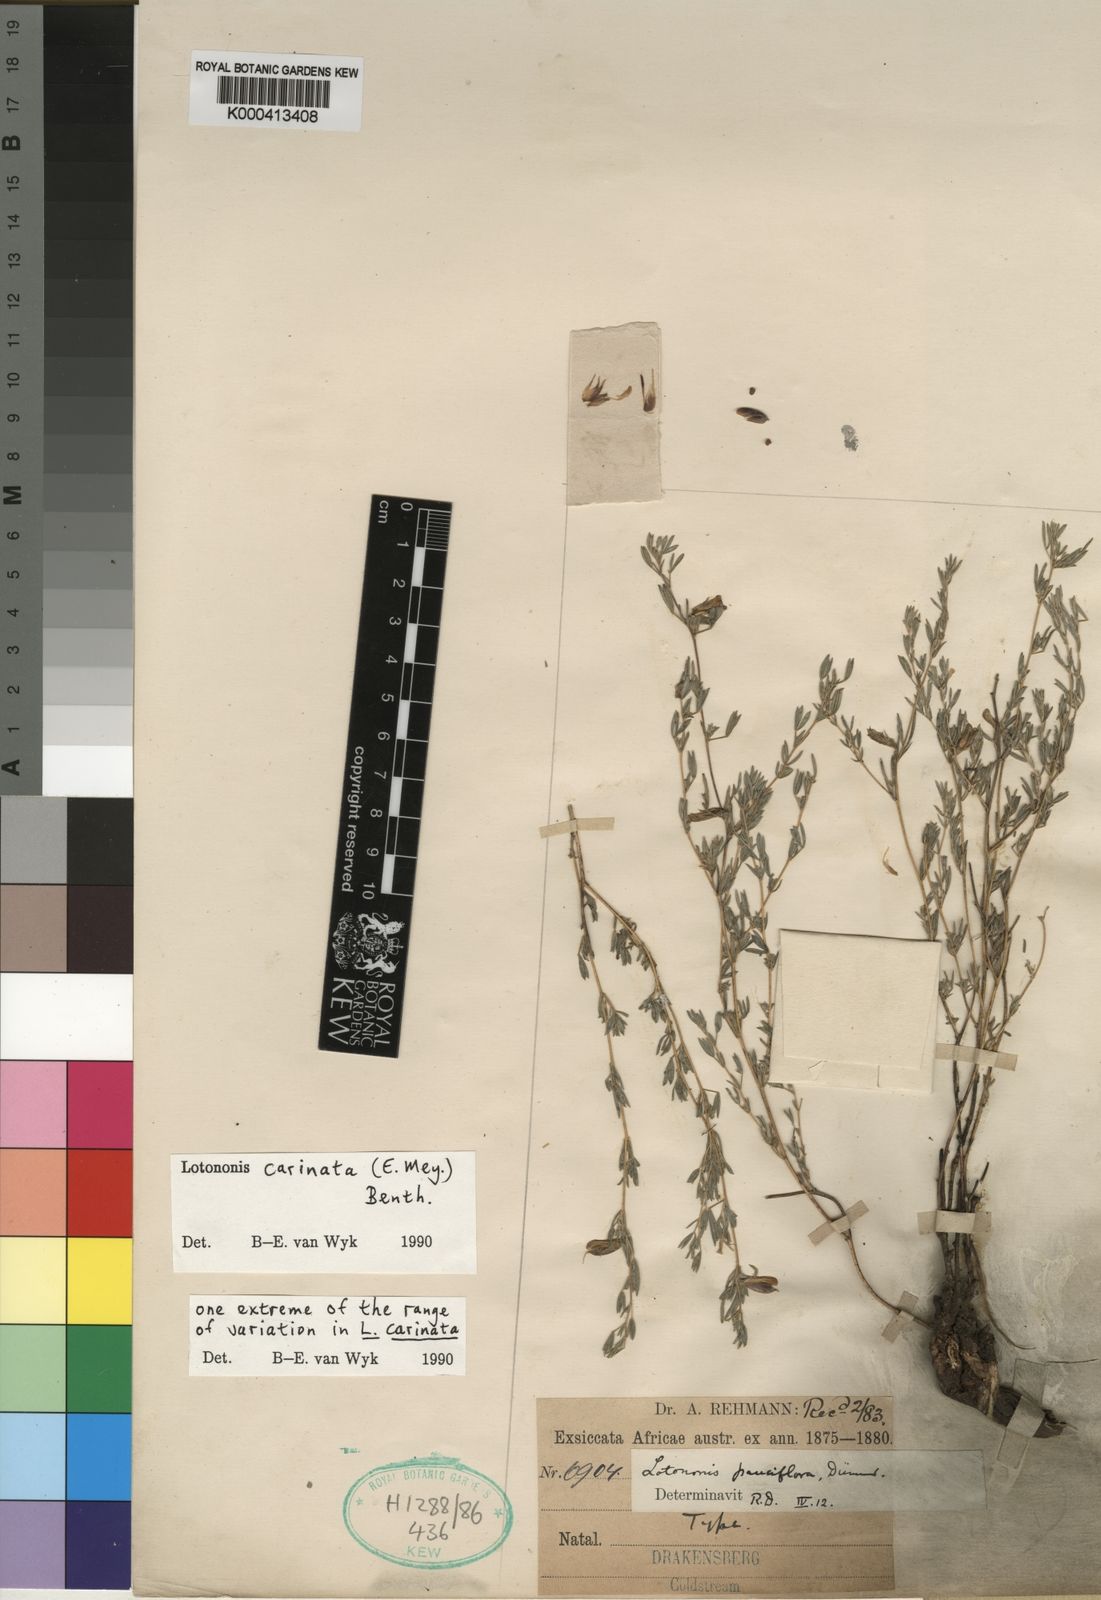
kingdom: Plantae
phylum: Tracheophyta
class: Magnoliopsida
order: Fabales
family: Fabaceae
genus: Leobordea
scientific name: Leobordea carinata
